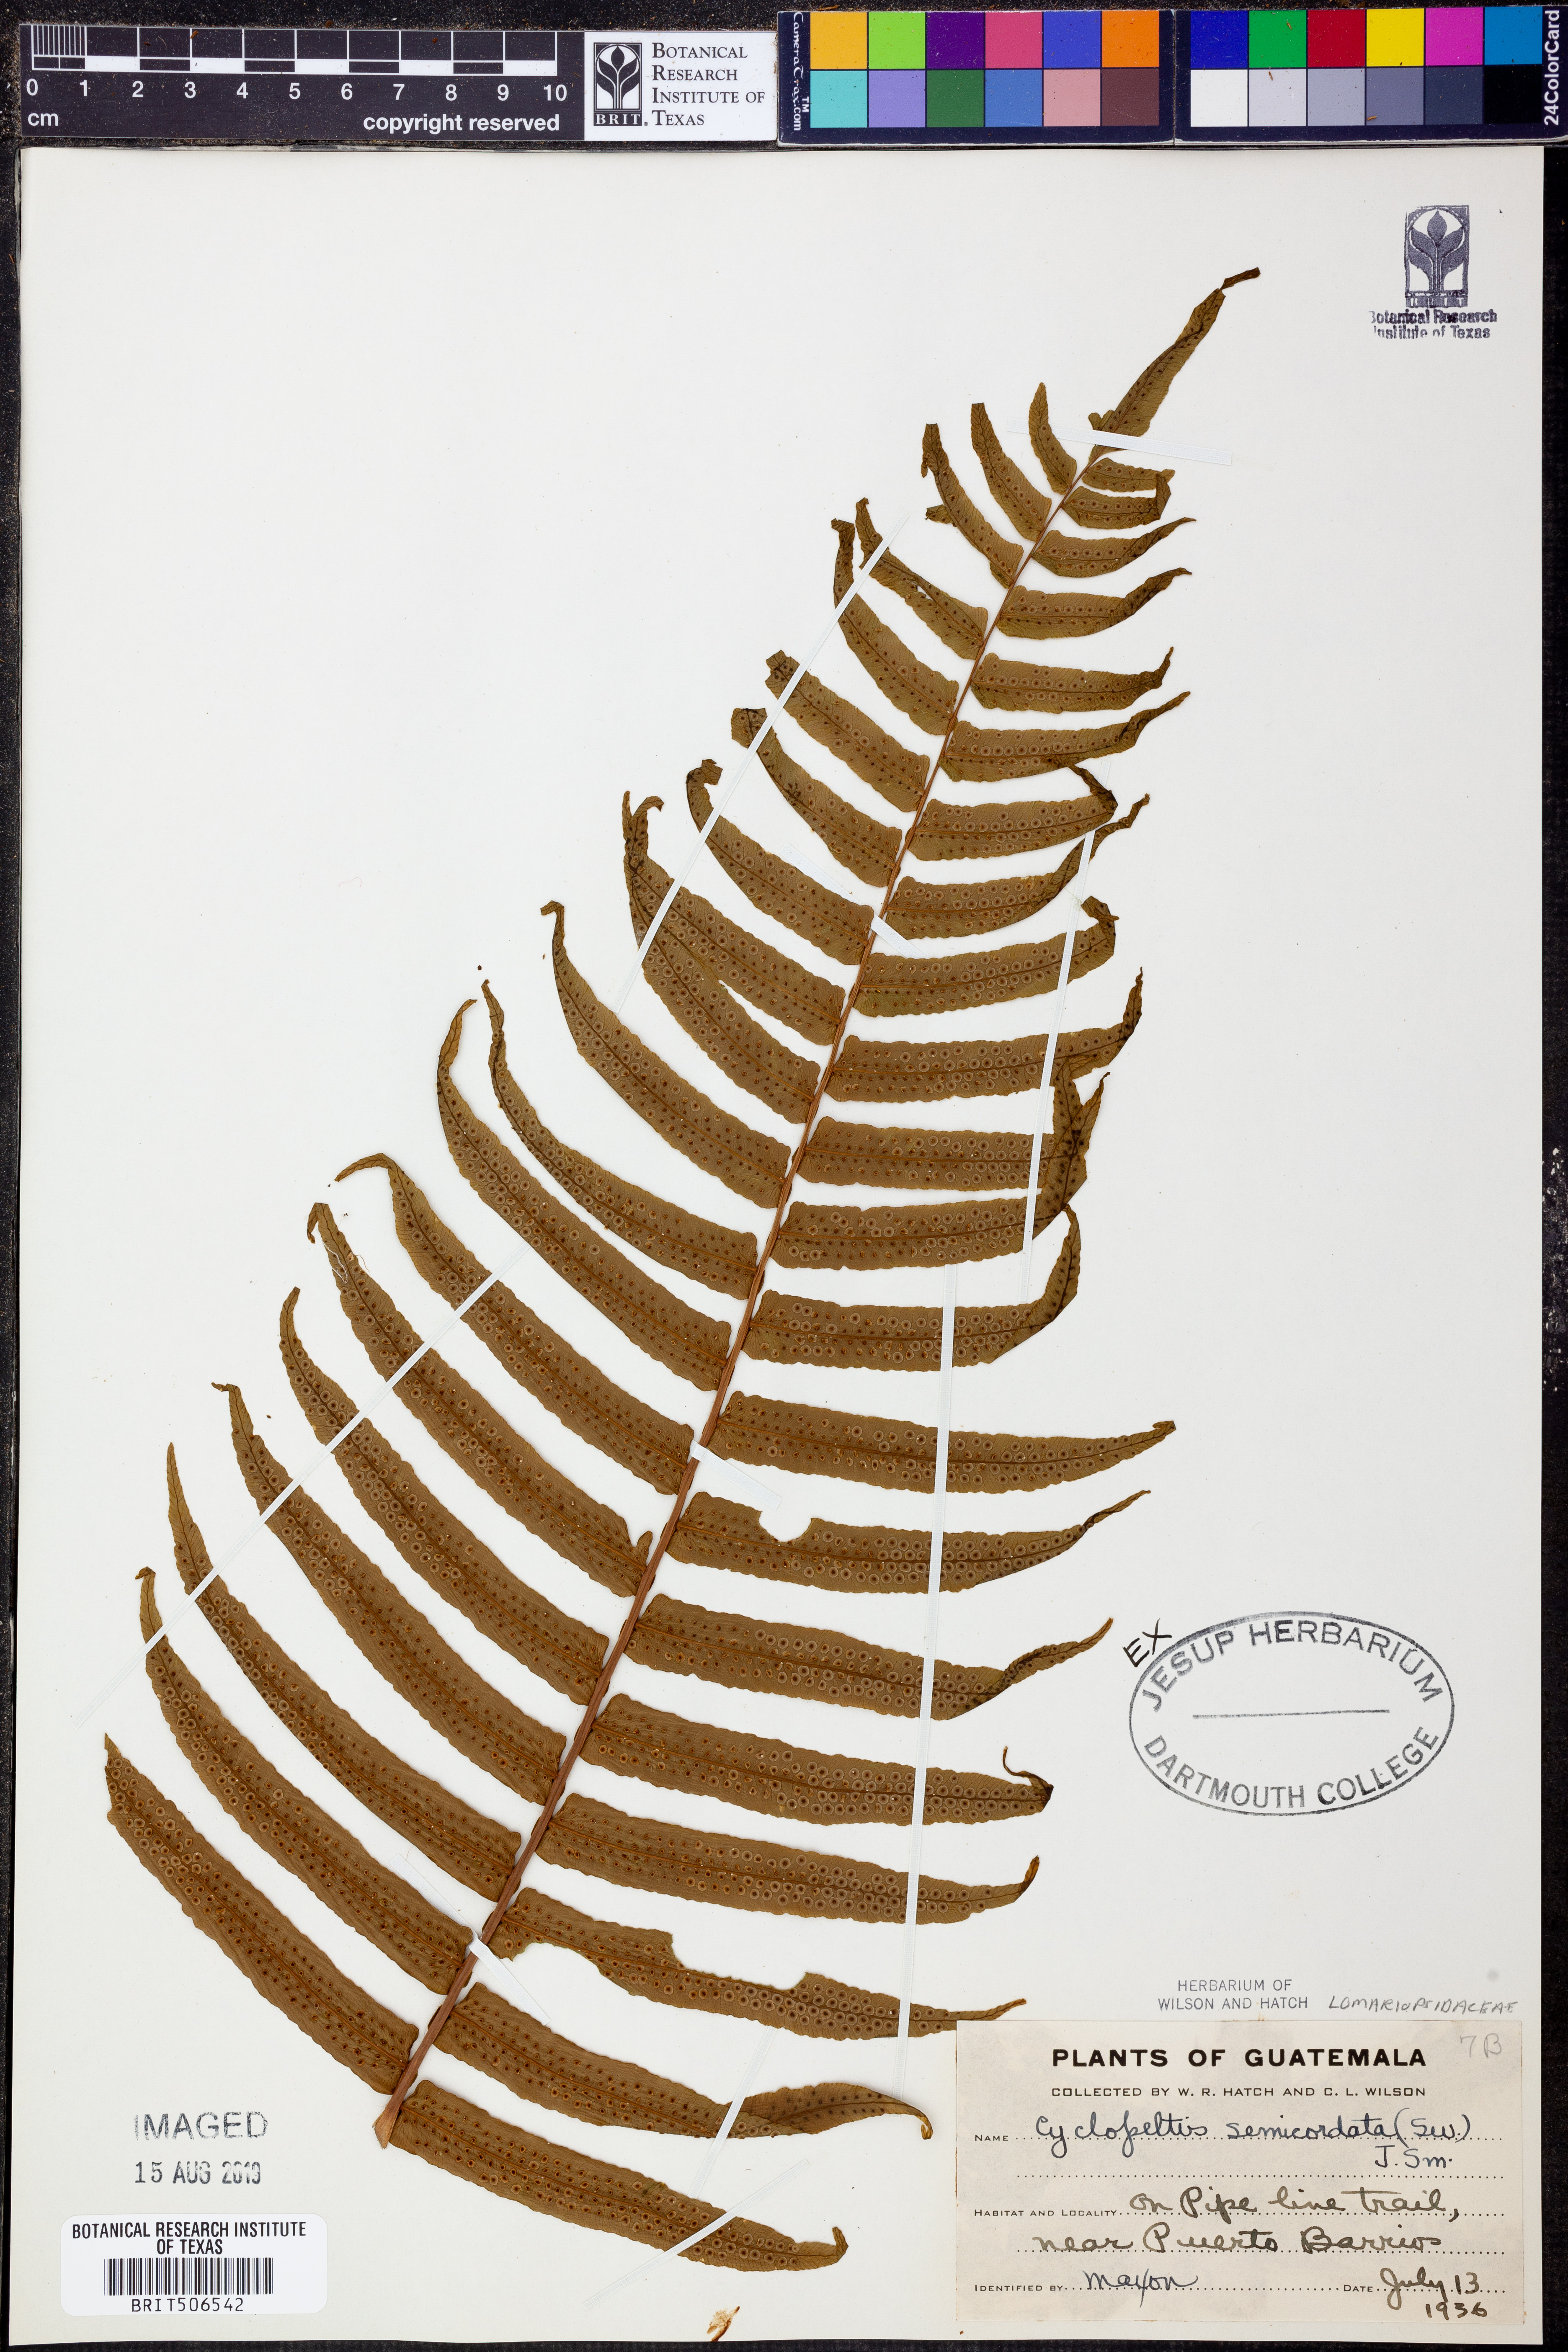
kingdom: Plantae
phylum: Tracheophyta
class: Polypodiopsida
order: Polypodiales
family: Lomariopsidaceae
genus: Cyclopeltis
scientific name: Cyclopeltis semicordata
